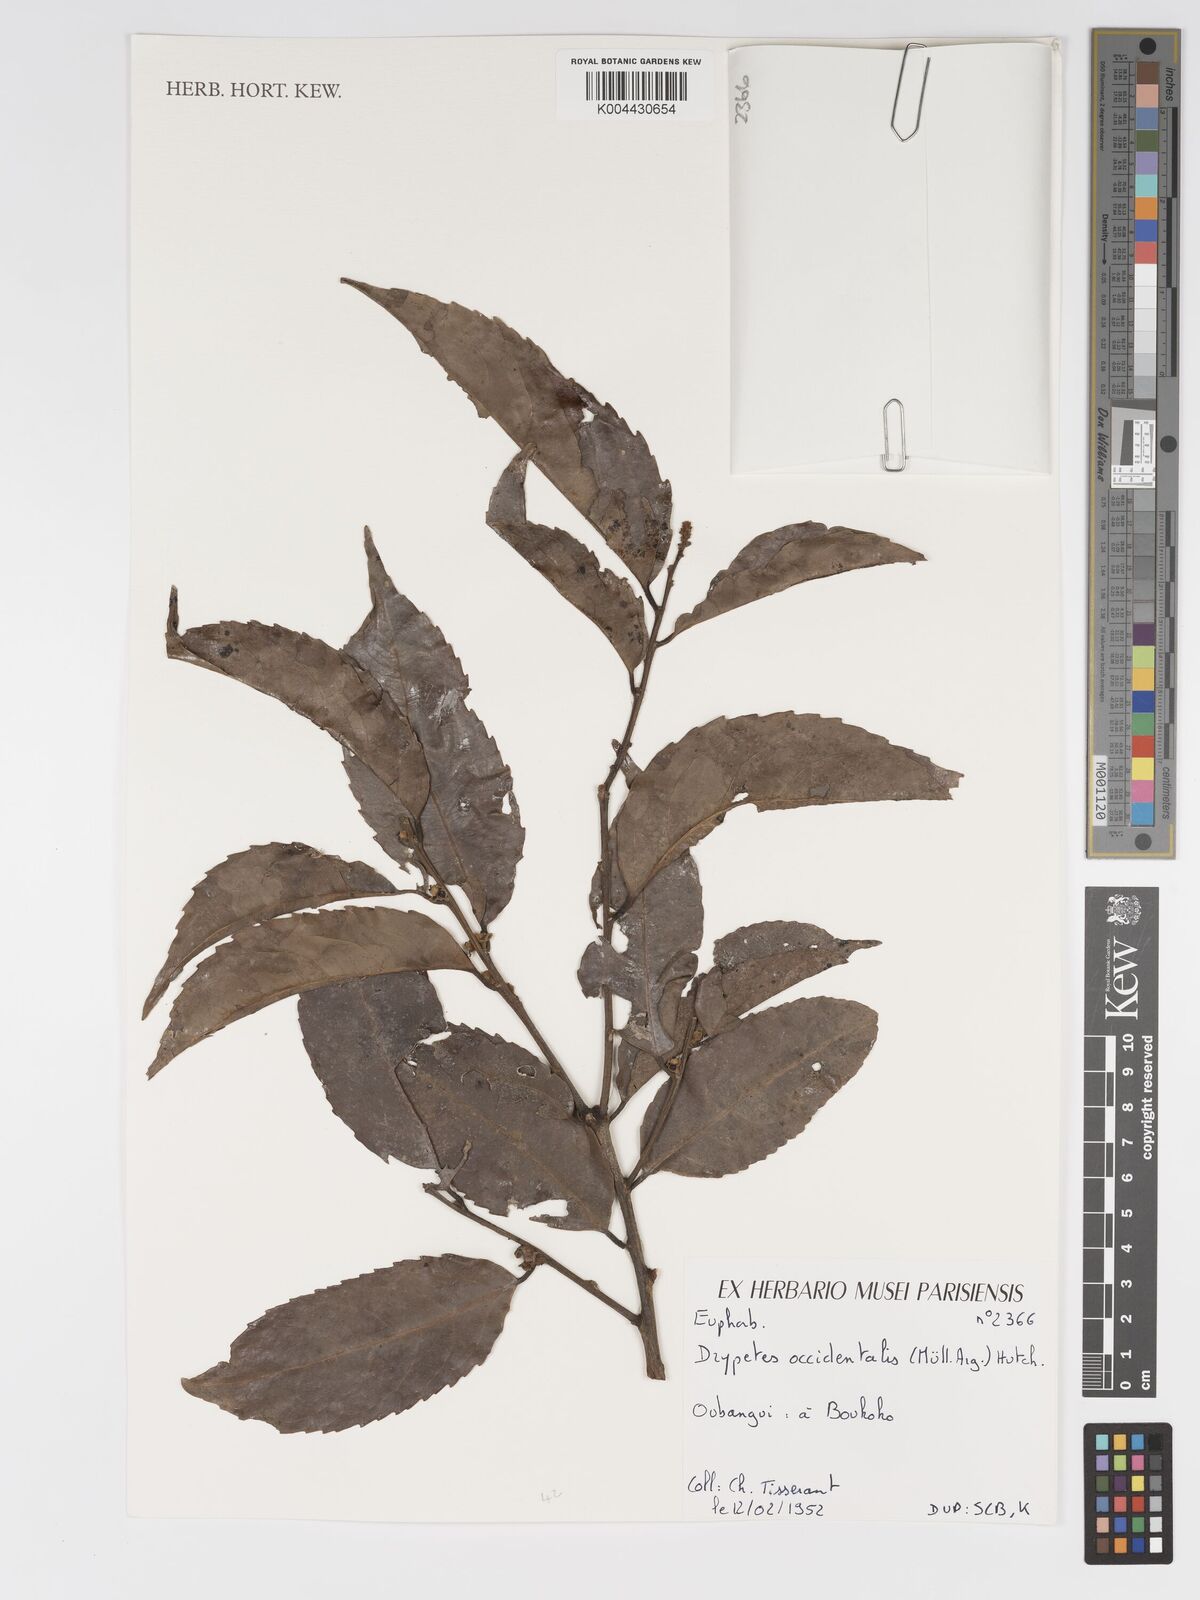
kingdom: Plantae
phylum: Tracheophyta
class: Magnoliopsida
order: Malpighiales
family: Putranjivaceae
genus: Drypetes
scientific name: Drypetes occidentalis
